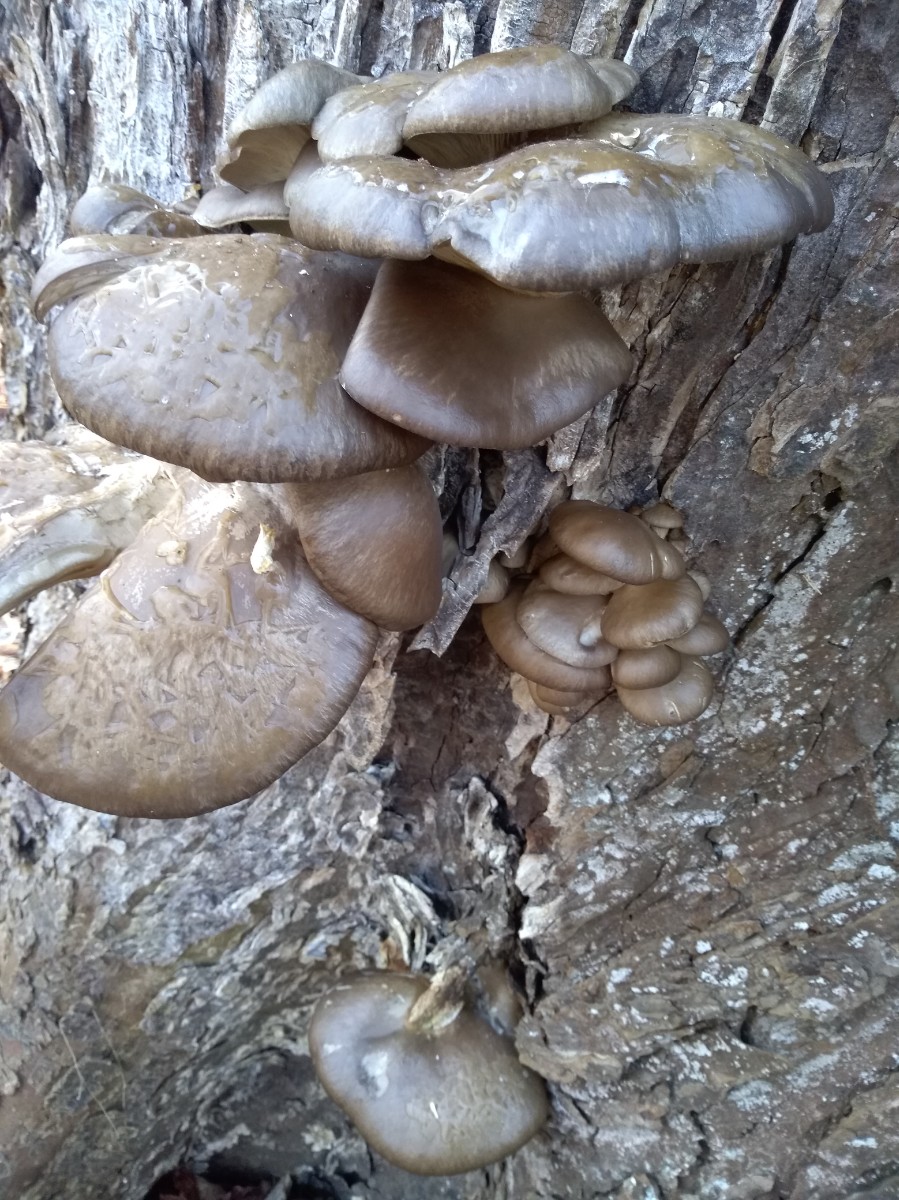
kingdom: Fungi
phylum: Basidiomycota
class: Agaricomycetes
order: Agaricales
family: Pleurotaceae
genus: Pleurotus
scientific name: Pleurotus ostreatus
